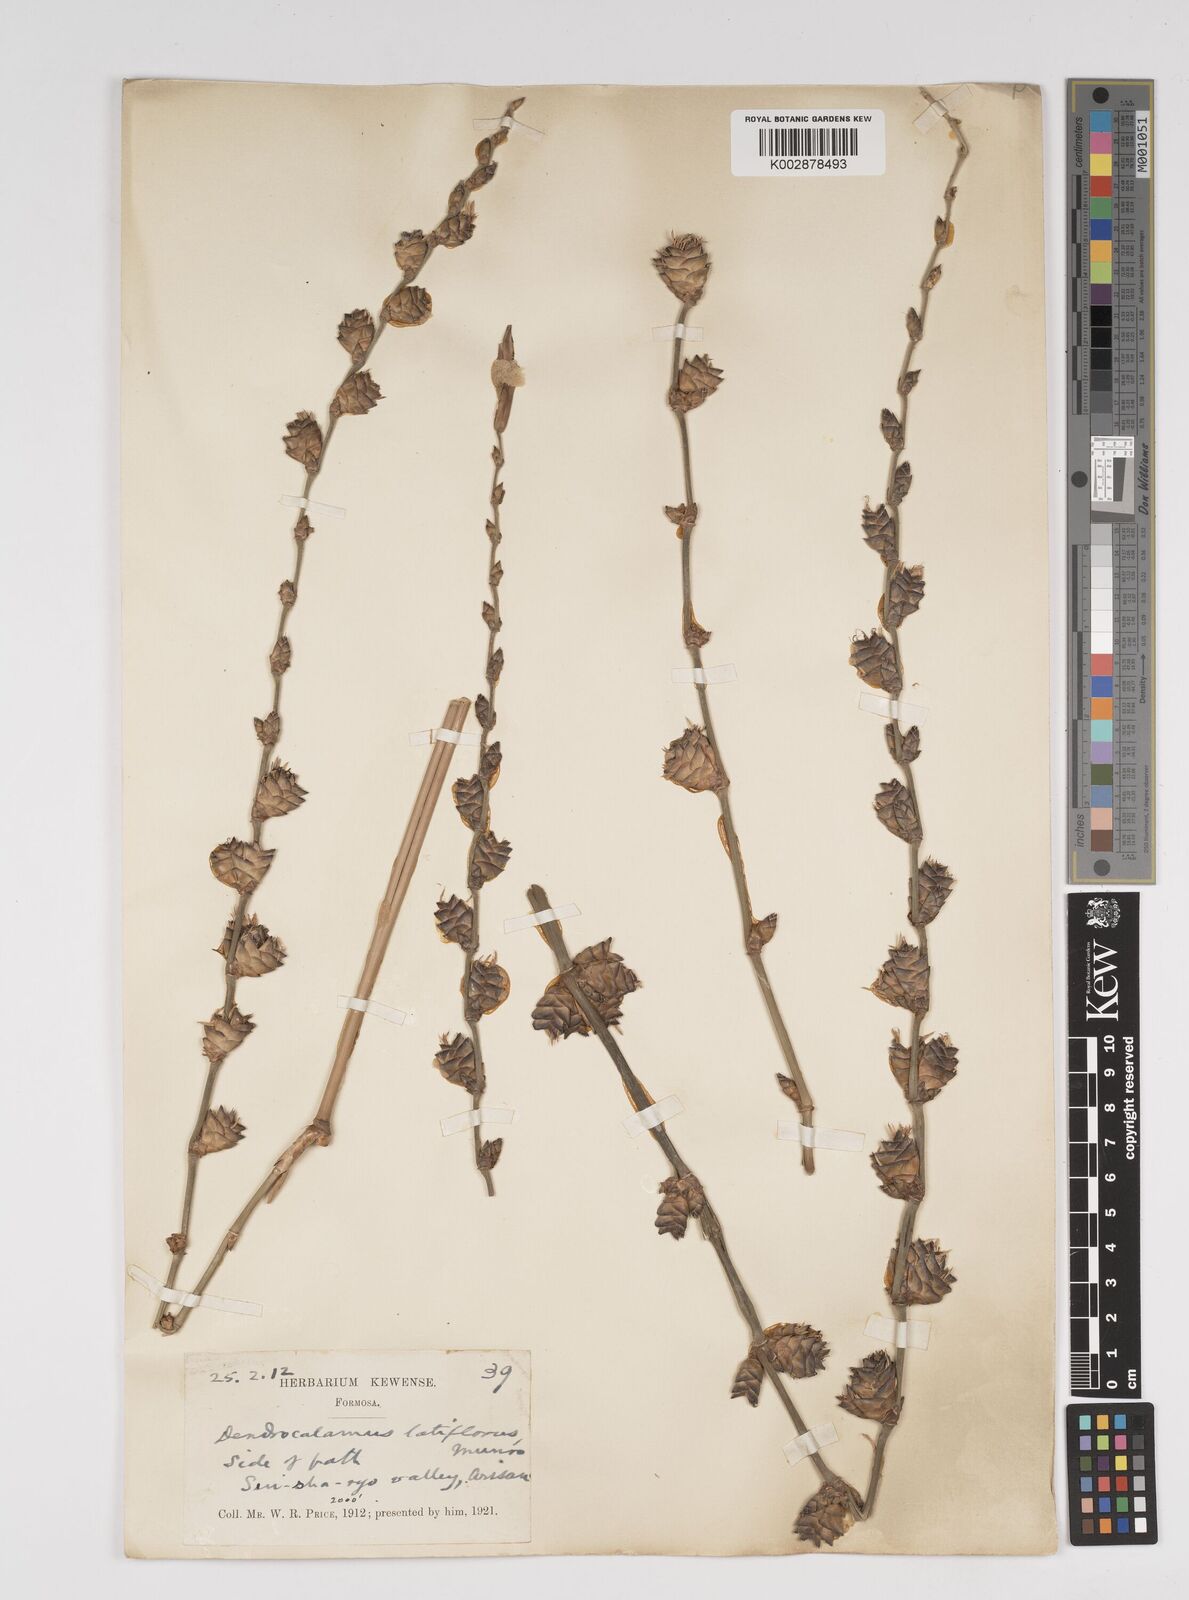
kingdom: Plantae
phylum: Tracheophyta
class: Liliopsida
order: Poales
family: Poaceae
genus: Dendrocalamus
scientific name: Dendrocalamus latiflorus
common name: Giant bamboo
